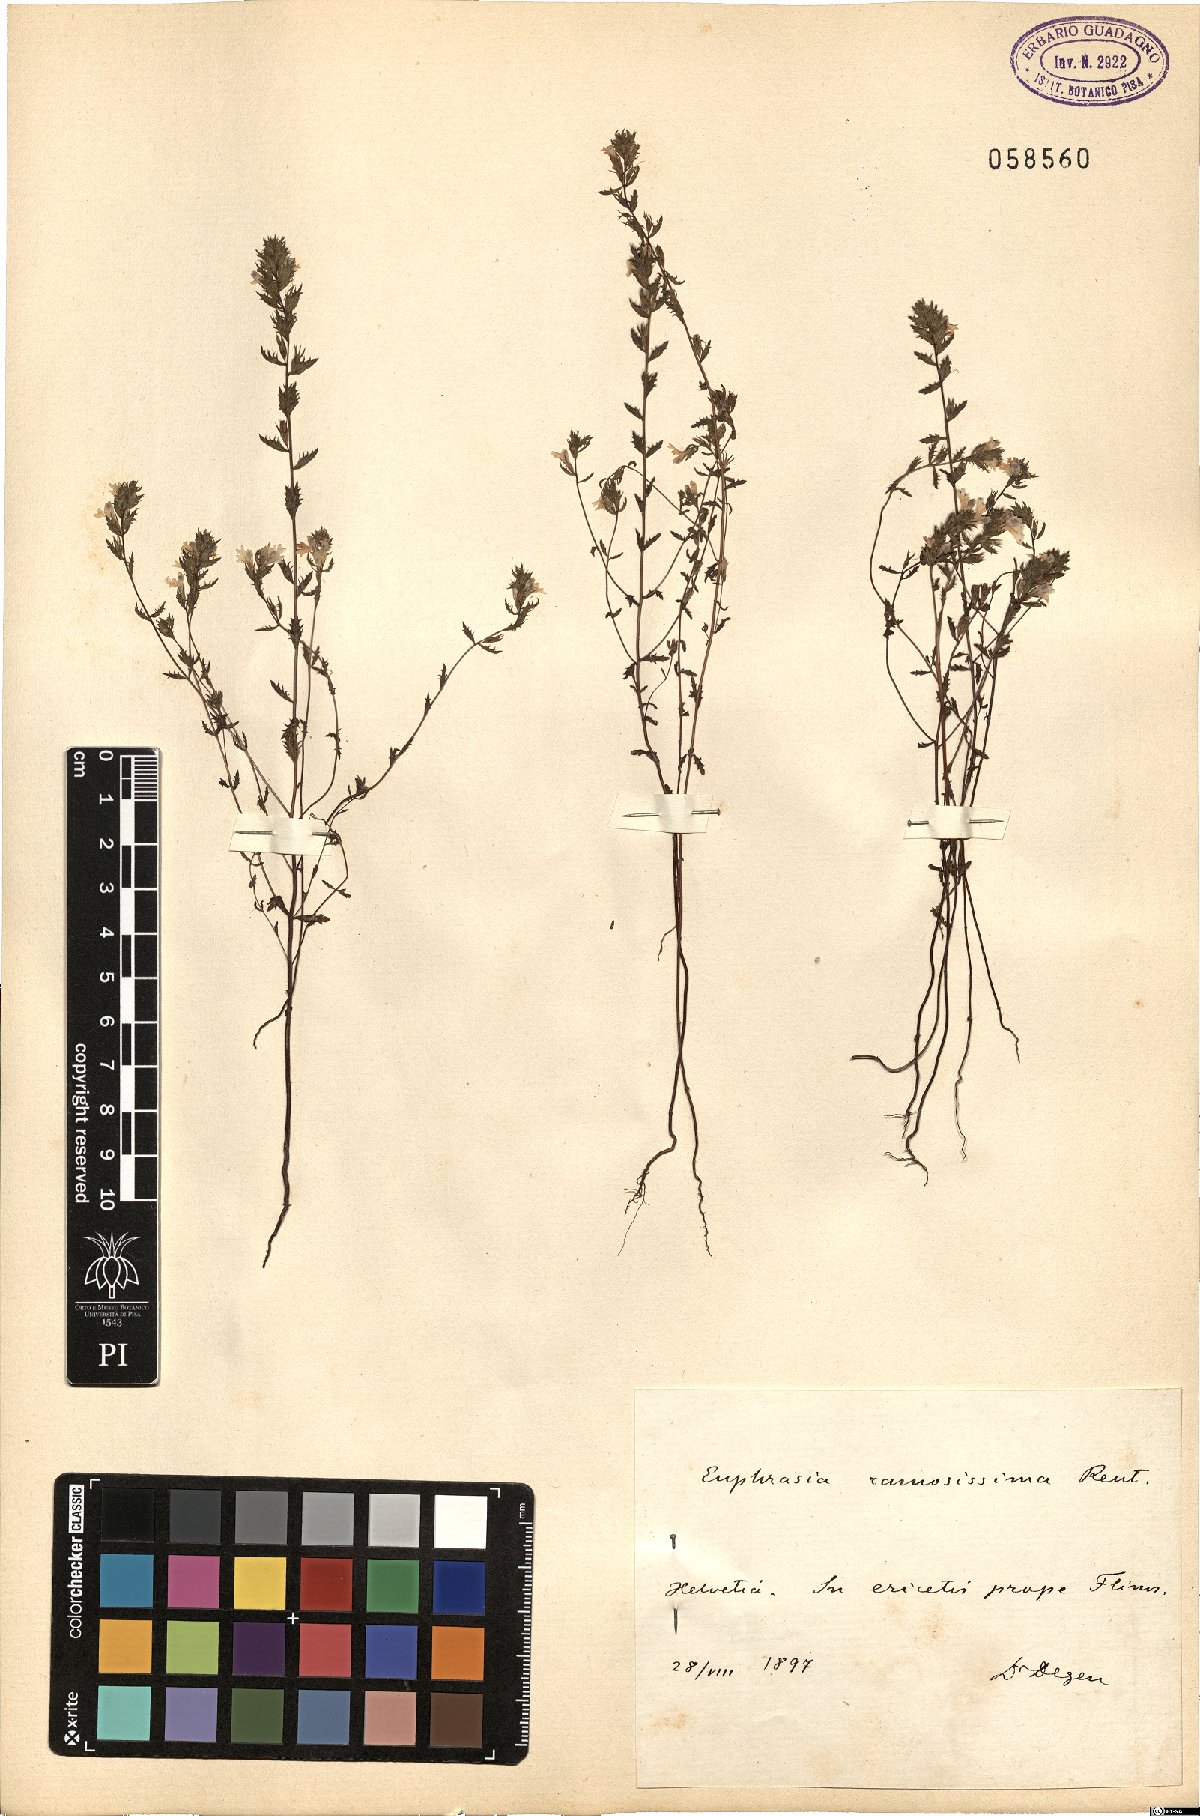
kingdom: Plantae
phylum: Tracheophyta
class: Magnoliopsida
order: Lamiales
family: Orobanchaceae
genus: Euphrasia
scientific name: Euphrasia tricuspidata
